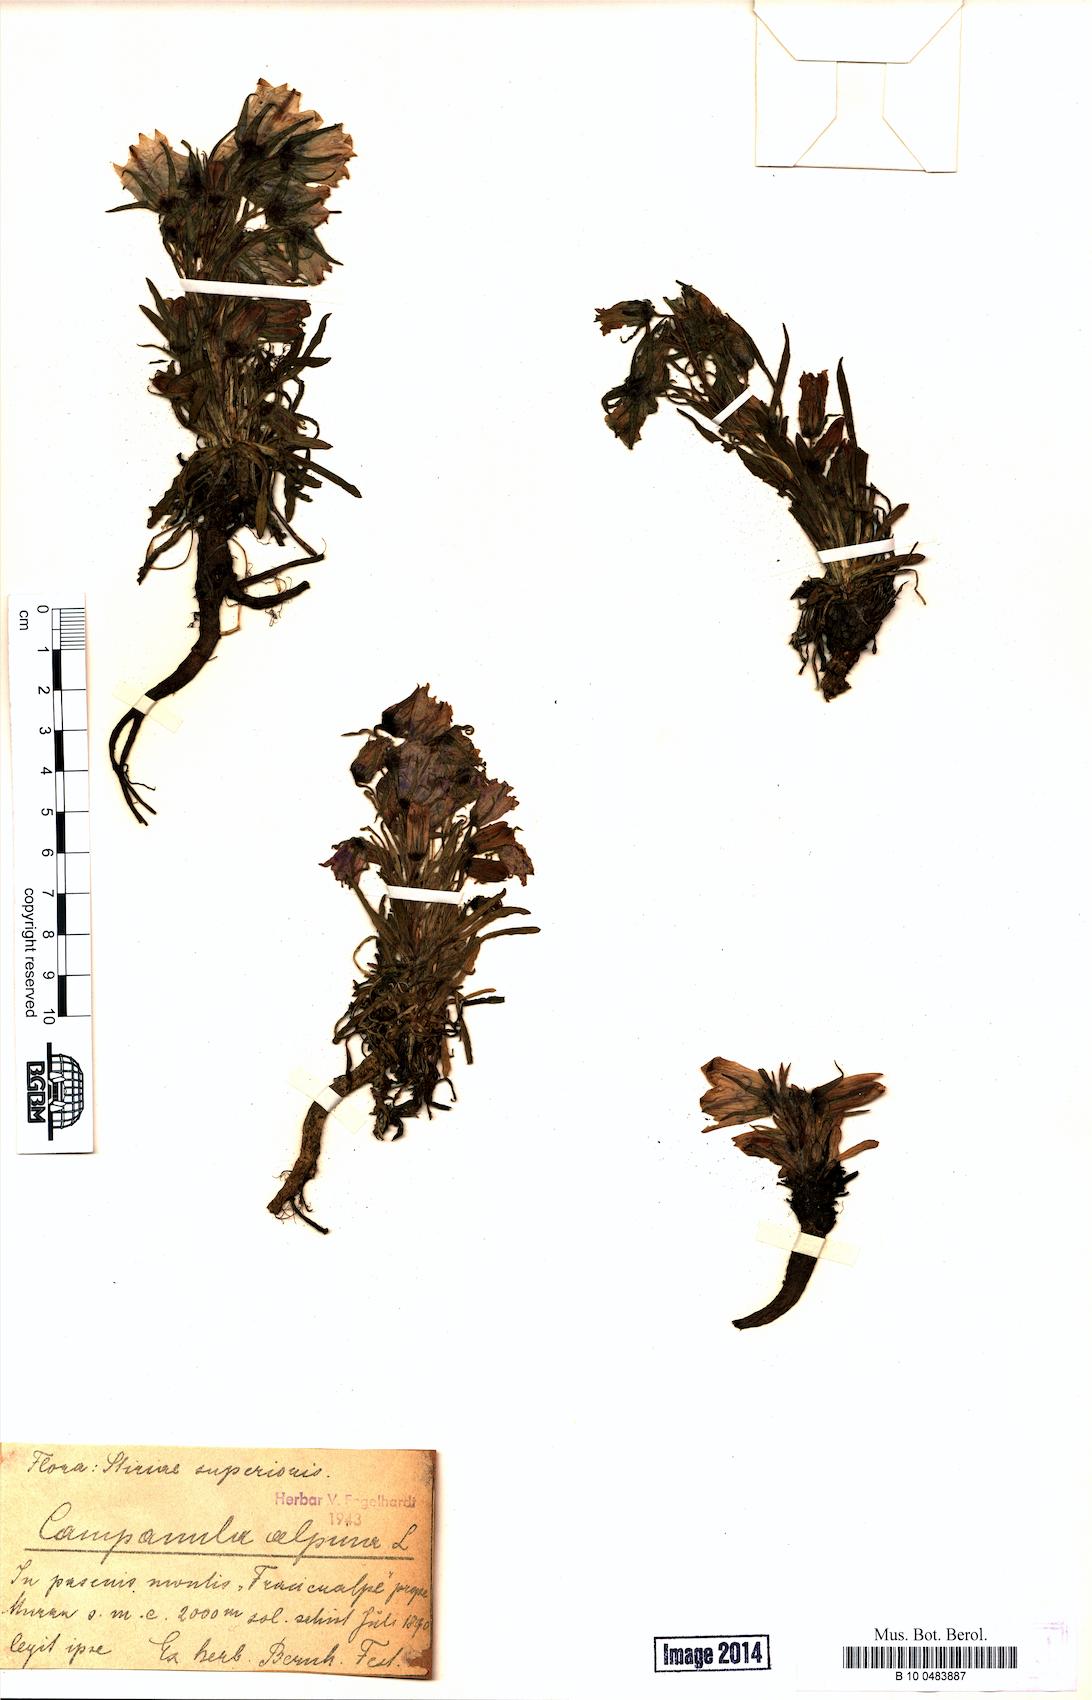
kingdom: Plantae
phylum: Tracheophyta
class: Magnoliopsida
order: Asterales
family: Campanulaceae
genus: Campanula
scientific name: Campanula alpina
